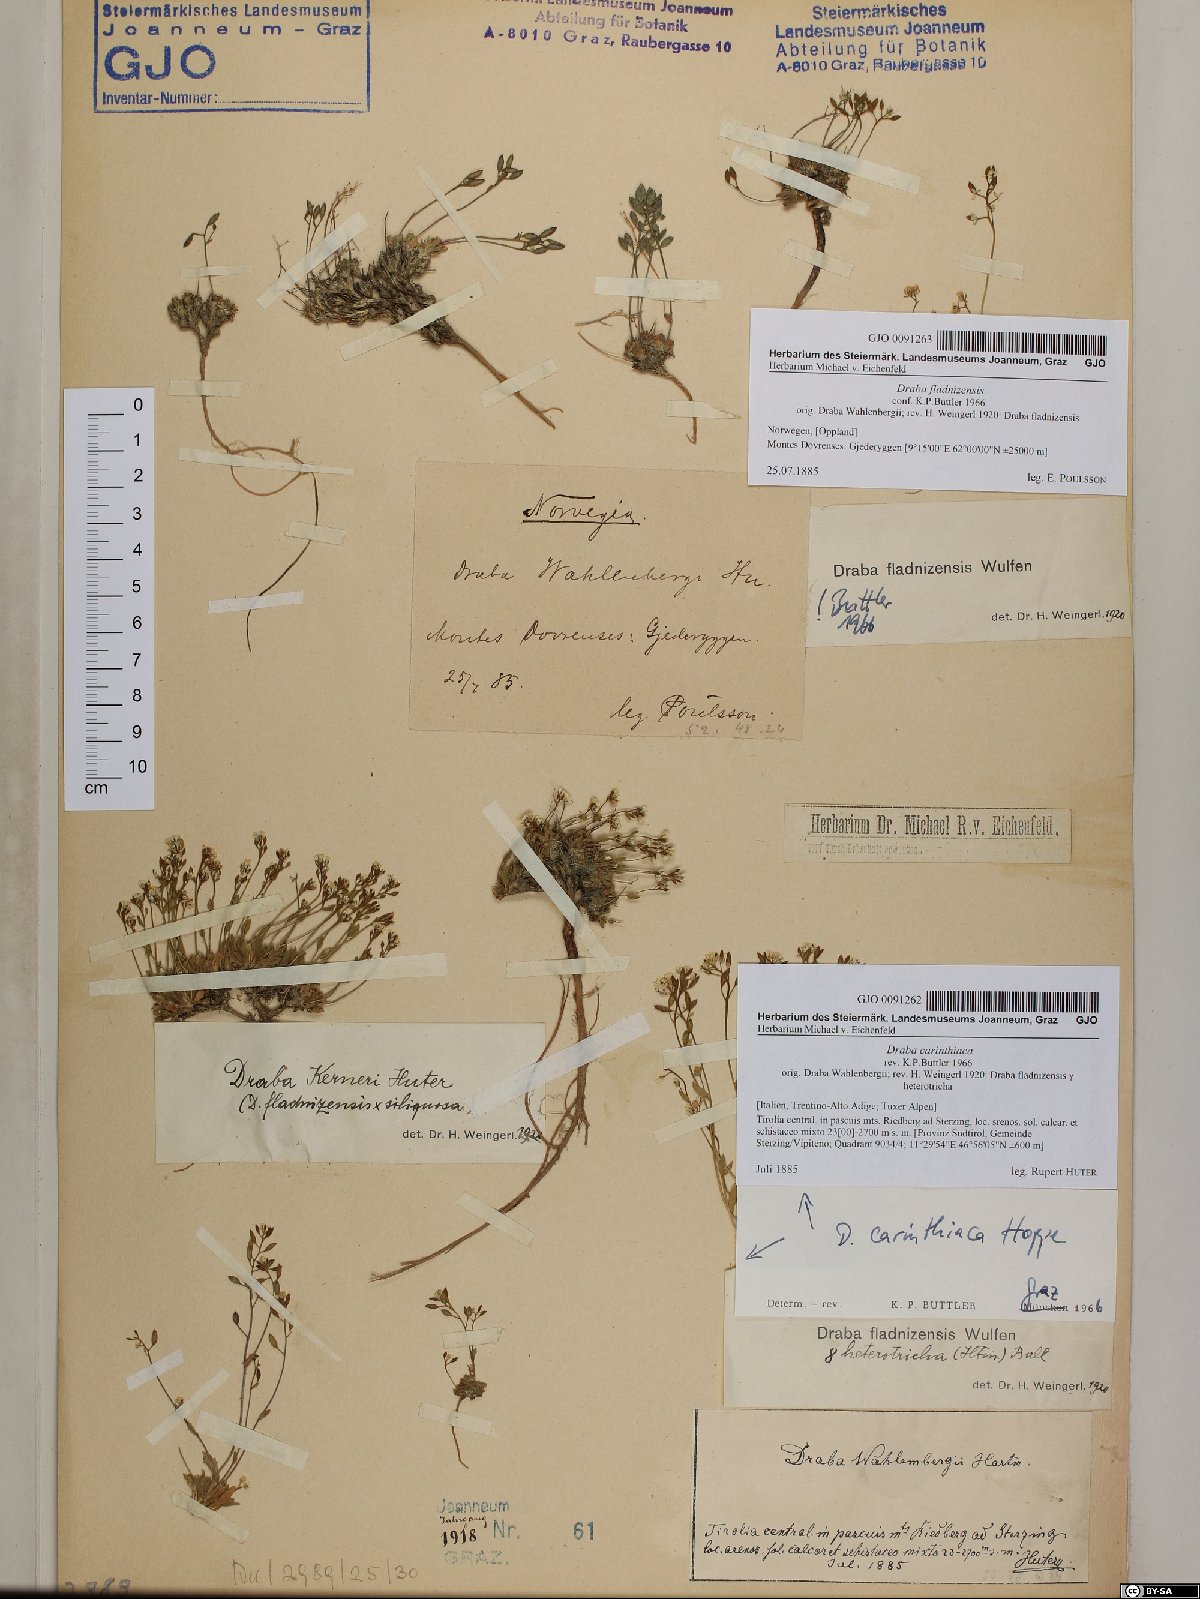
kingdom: Plantae
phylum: Tracheophyta
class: Magnoliopsida
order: Brassicales
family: Brassicaceae
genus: Draba
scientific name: Draba siliquosa
